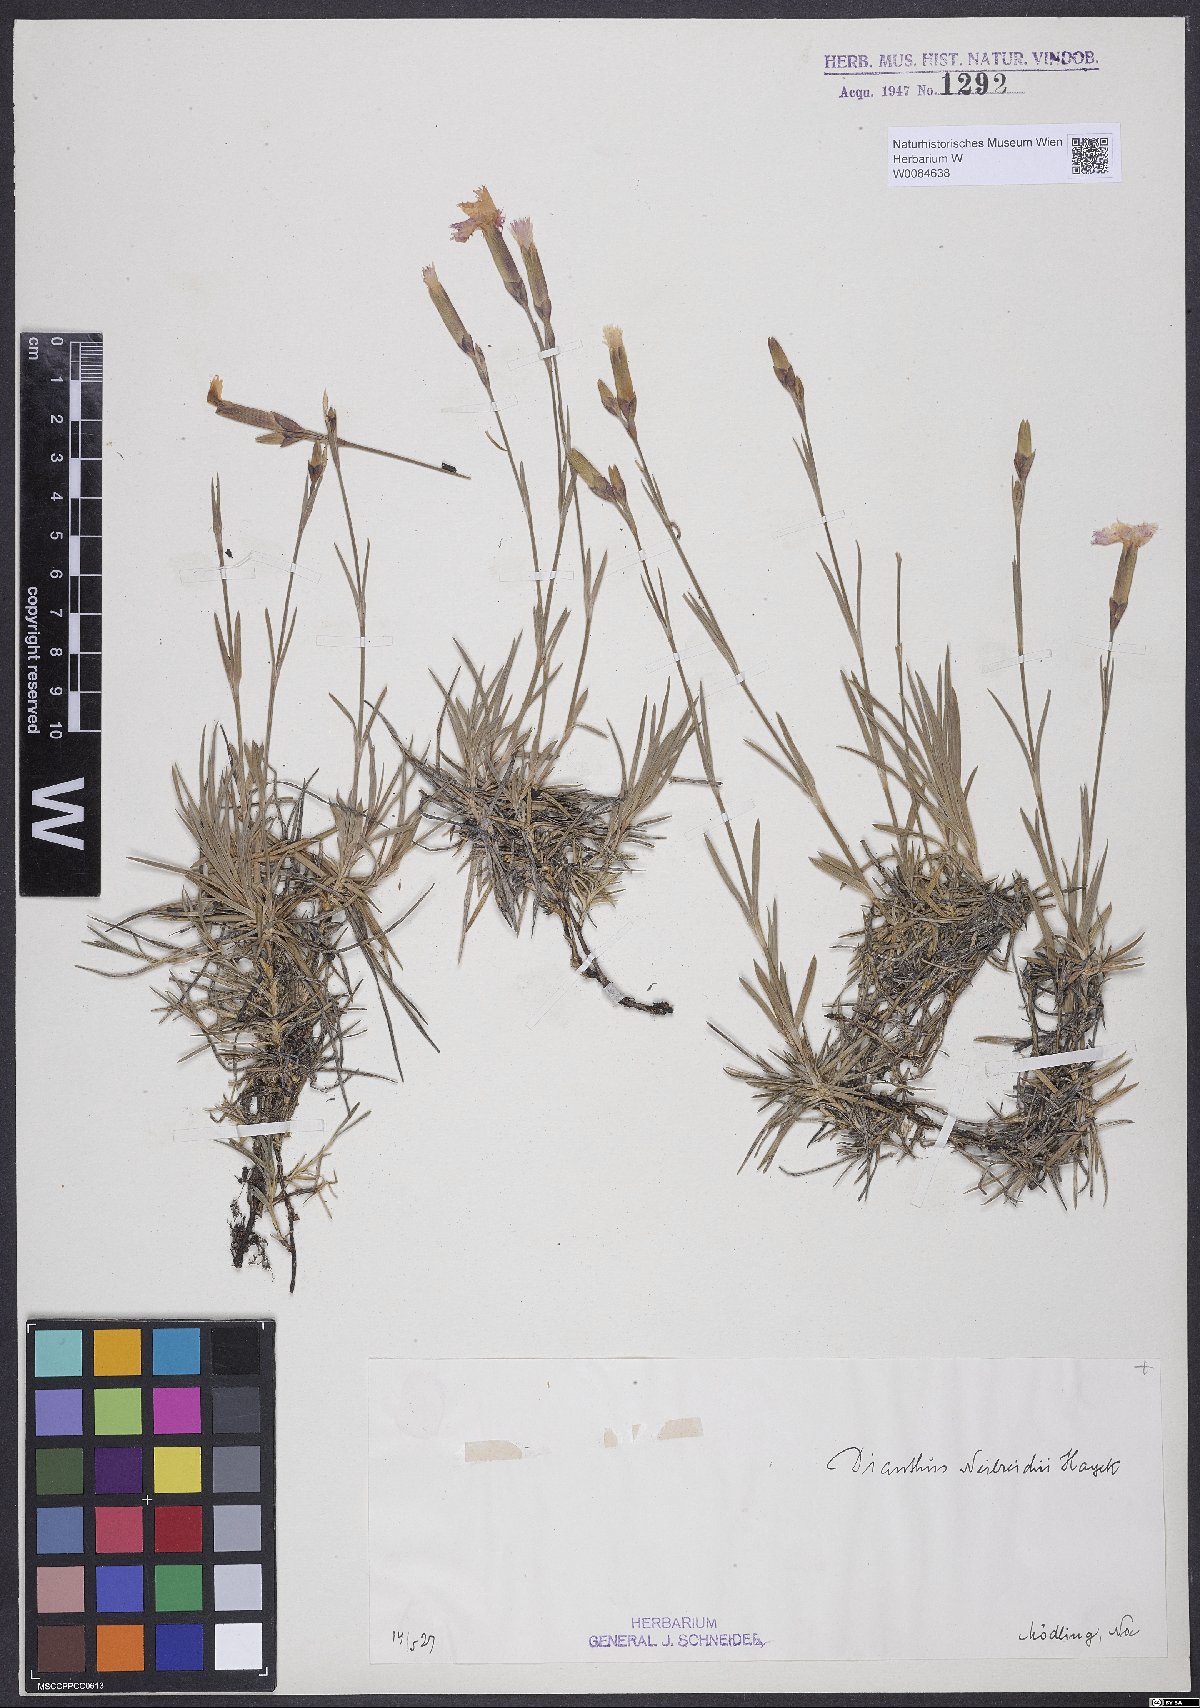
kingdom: Plantae
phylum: Tracheophyta
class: Magnoliopsida
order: Caryophyllales
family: Caryophyllaceae
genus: Dianthus
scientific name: Dianthus plumarius
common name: Pink
